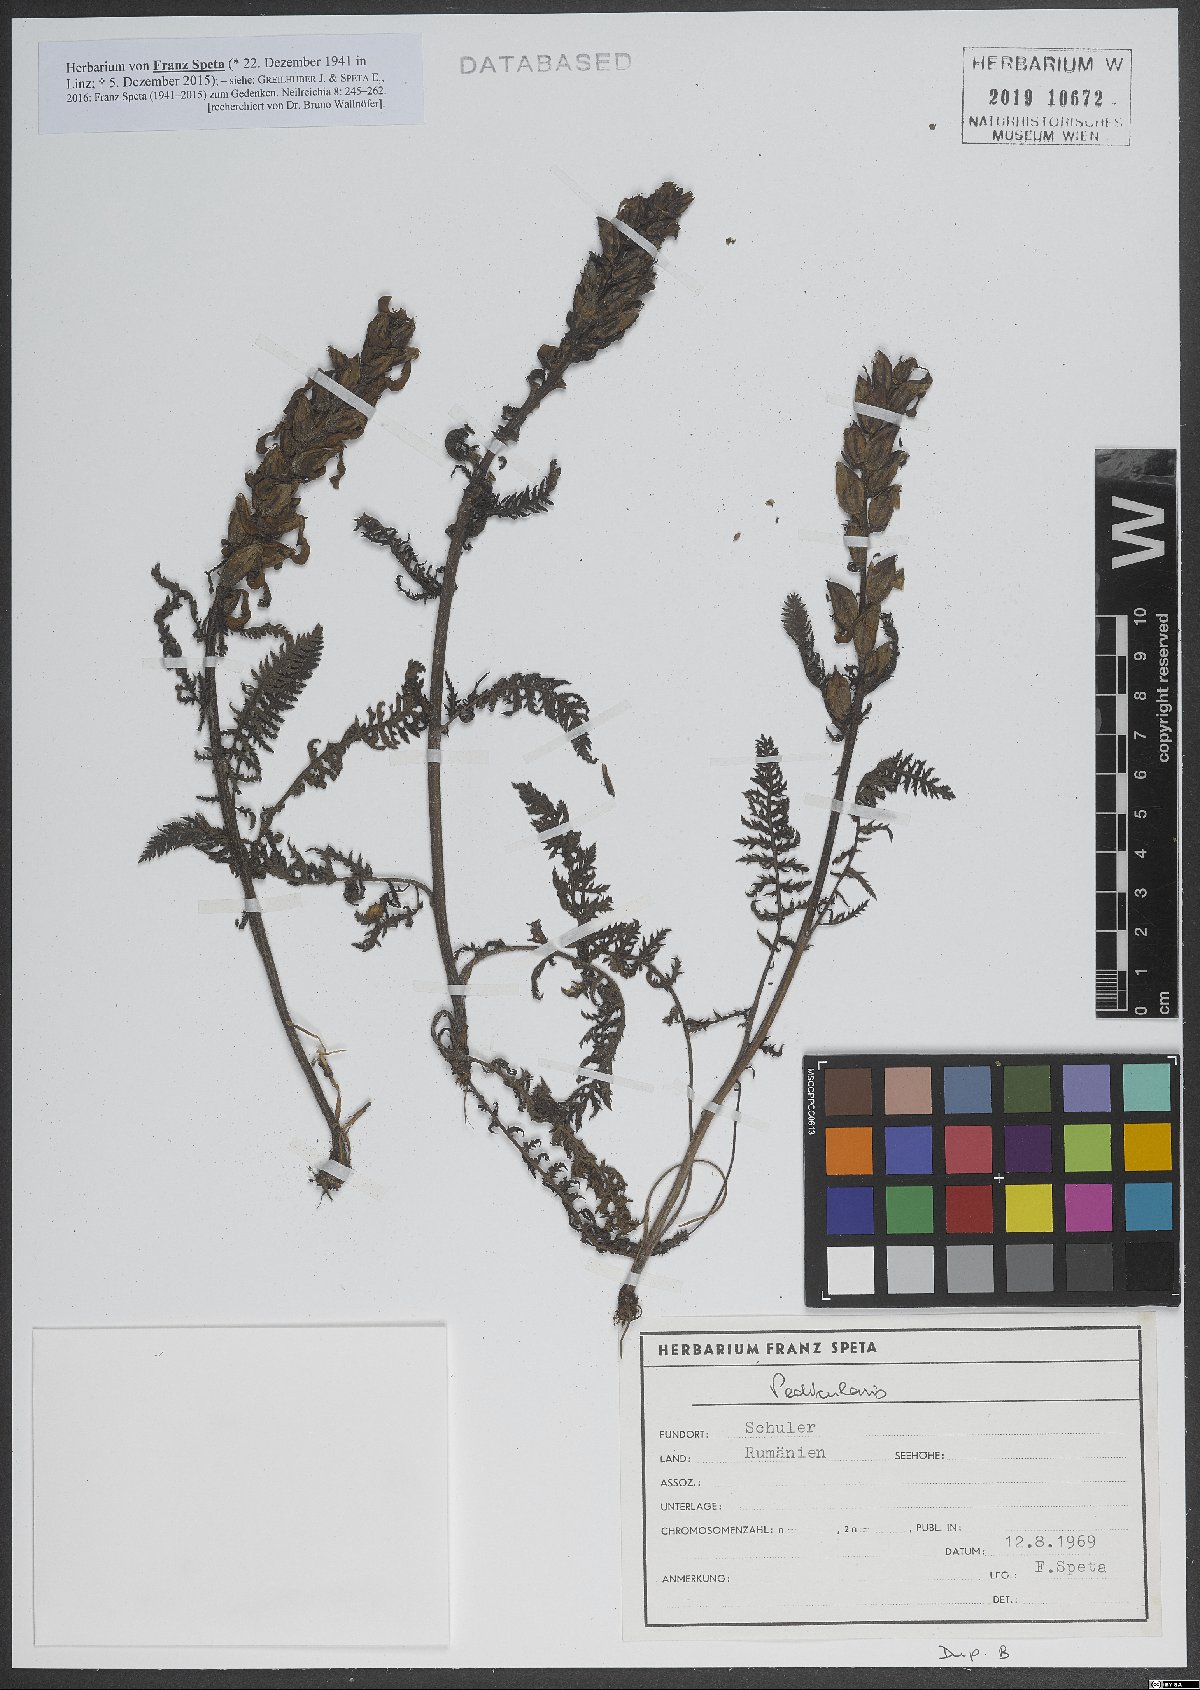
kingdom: Plantae
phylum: Tracheophyta
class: Magnoliopsida
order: Lamiales
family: Orobanchaceae
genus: Pedicularis
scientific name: Pedicularis
